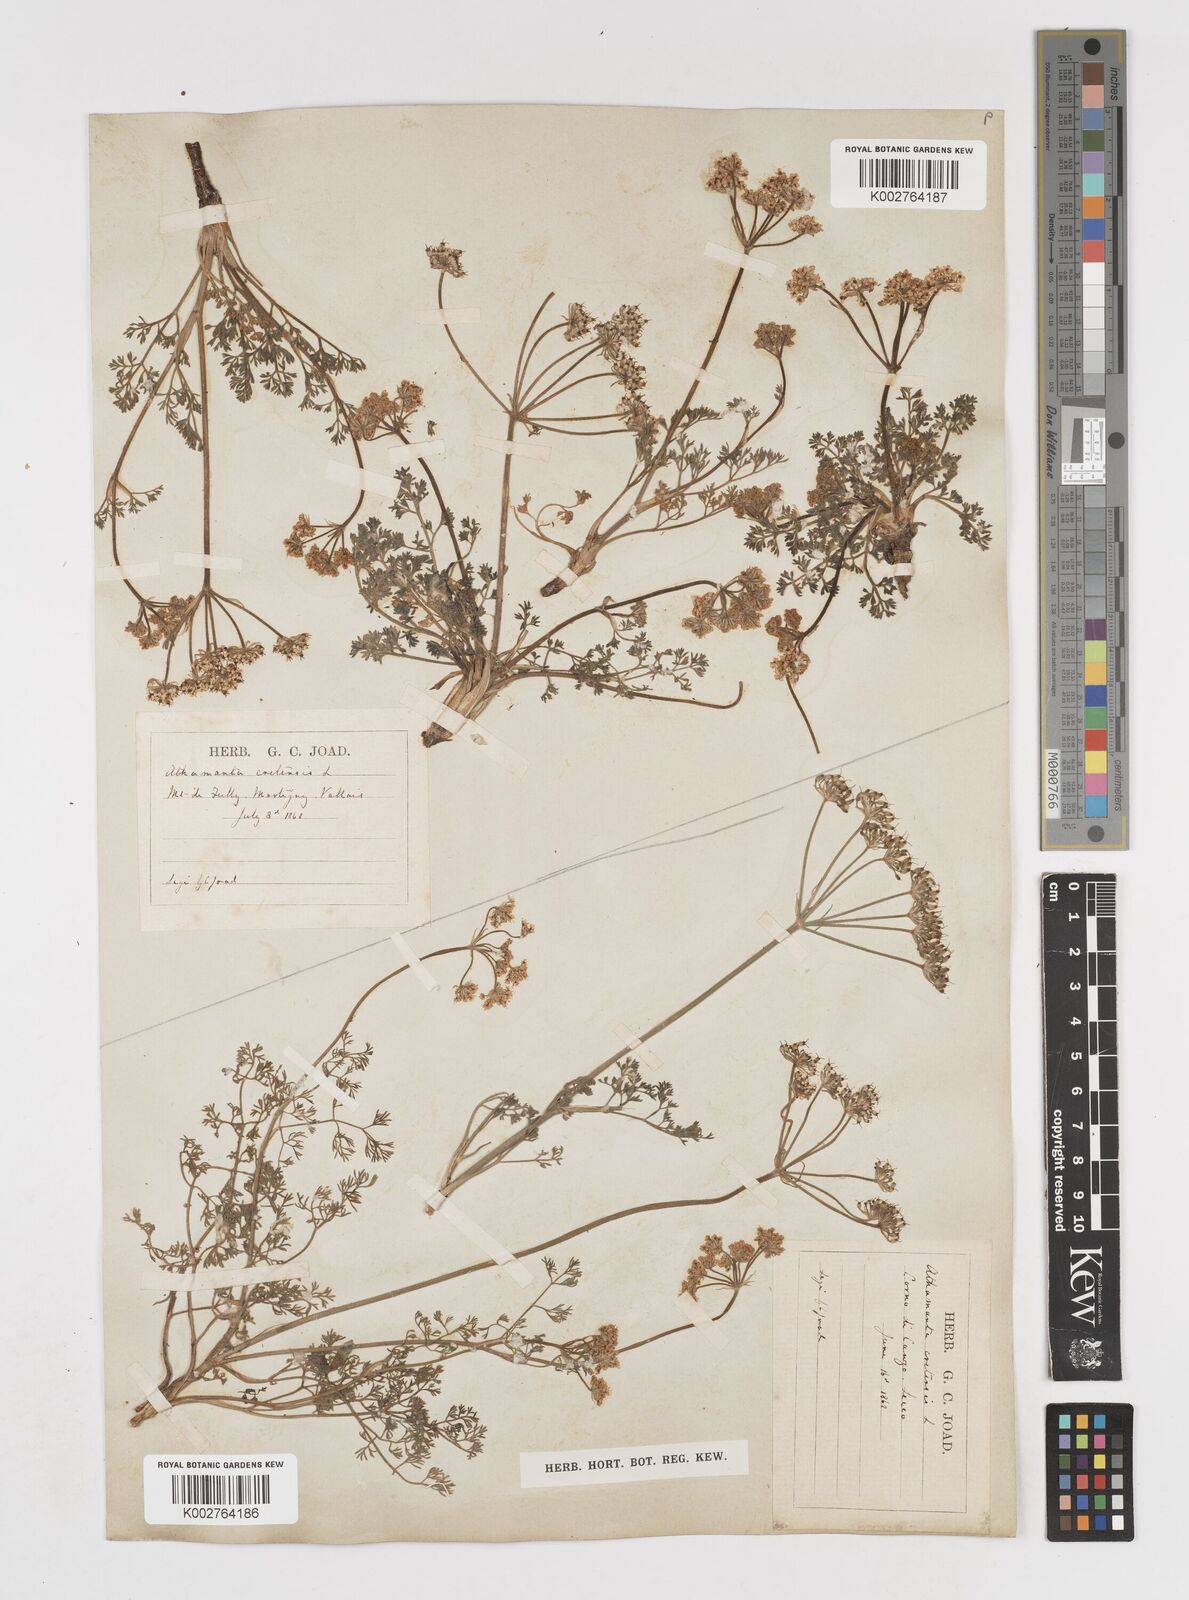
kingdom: Plantae
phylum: Tracheophyta
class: Magnoliopsida
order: Apiales
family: Apiaceae
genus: Athamanta
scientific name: Athamanta cretensis
